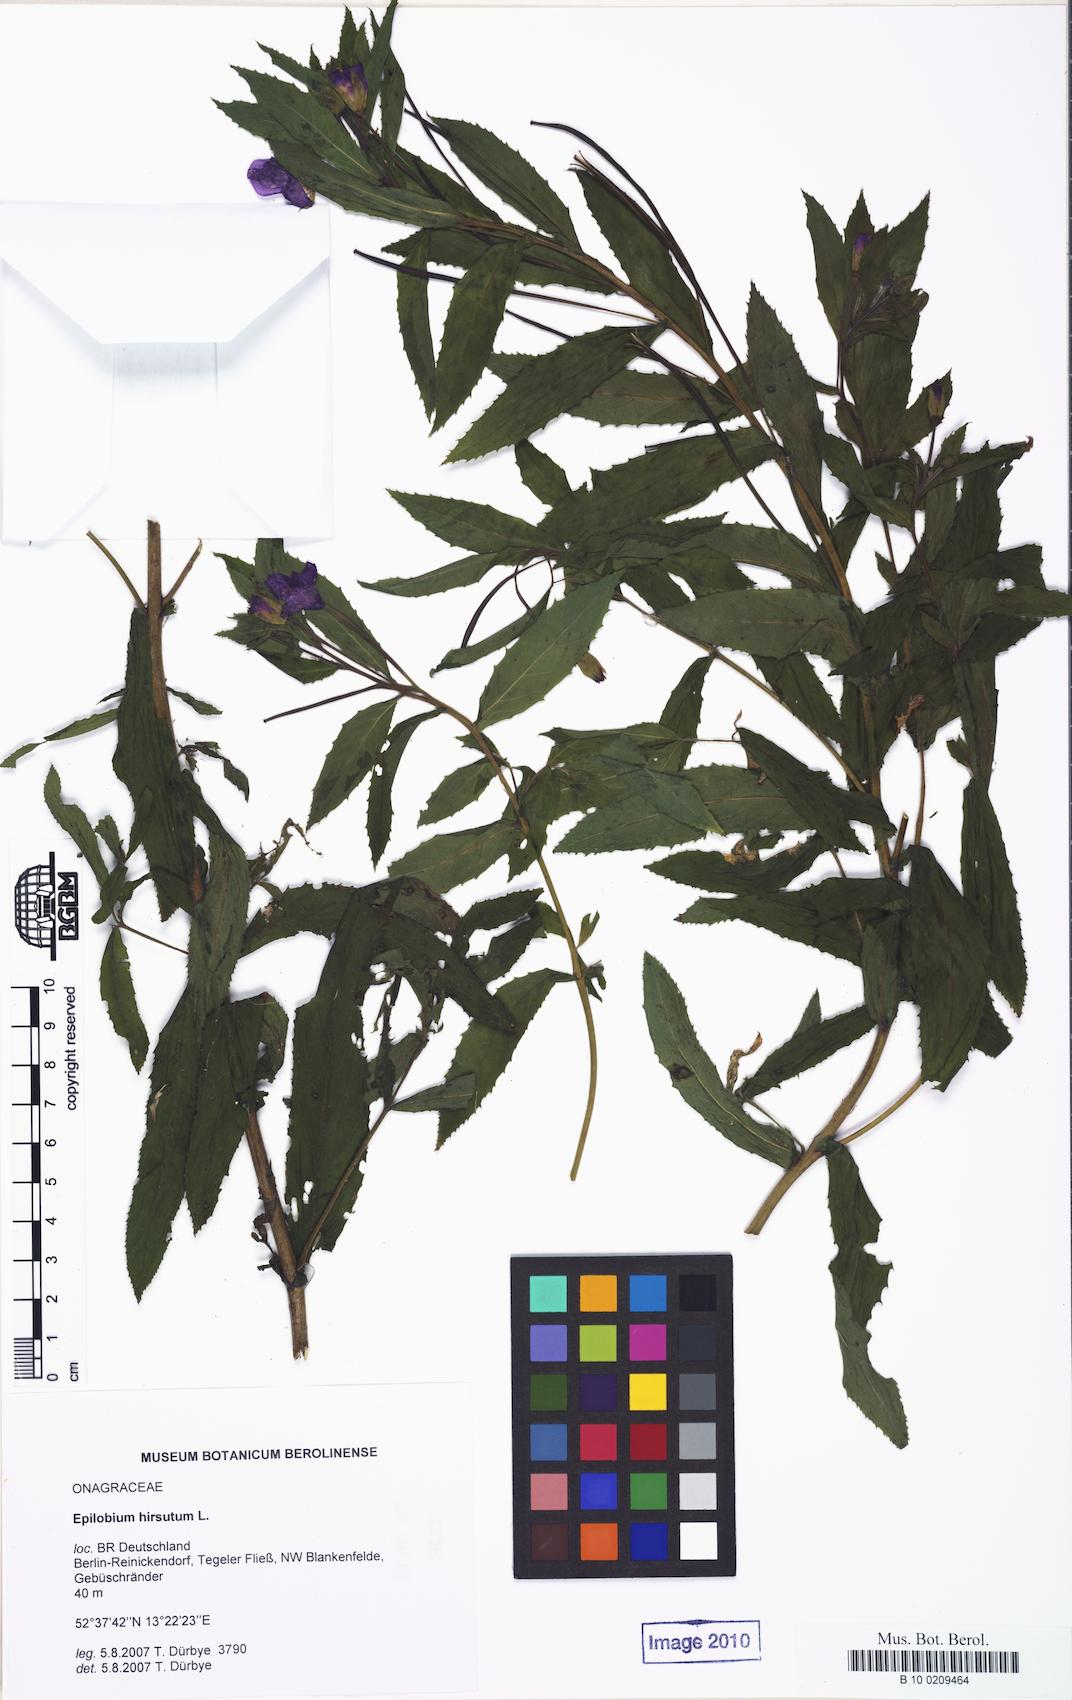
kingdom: Plantae
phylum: Tracheophyta
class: Magnoliopsida
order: Myrtales
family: Onagraceae
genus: Epilobium
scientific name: Epilobium hirsutum
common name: Great willowherb
